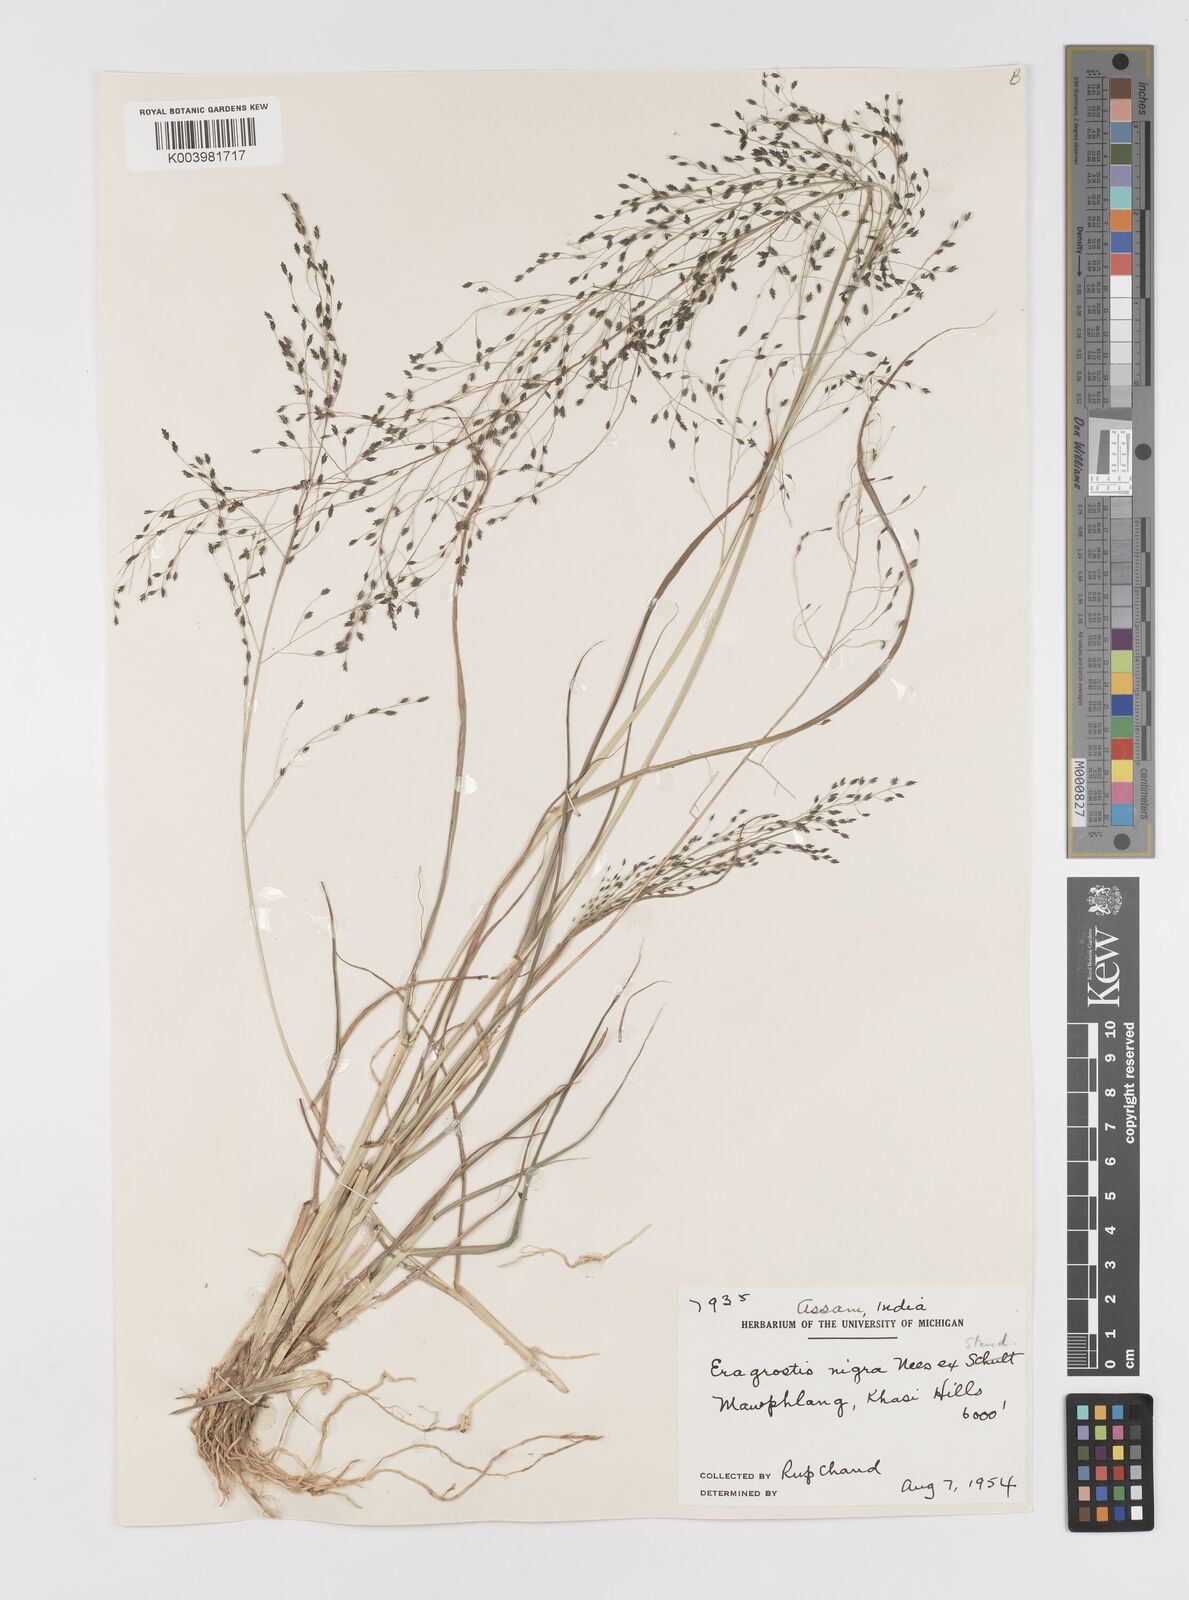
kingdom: Plantae
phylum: Tracheophyta
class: Liliopsida
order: Poales
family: Poaceae
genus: Eragrostis
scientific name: Eragrostis nigra
